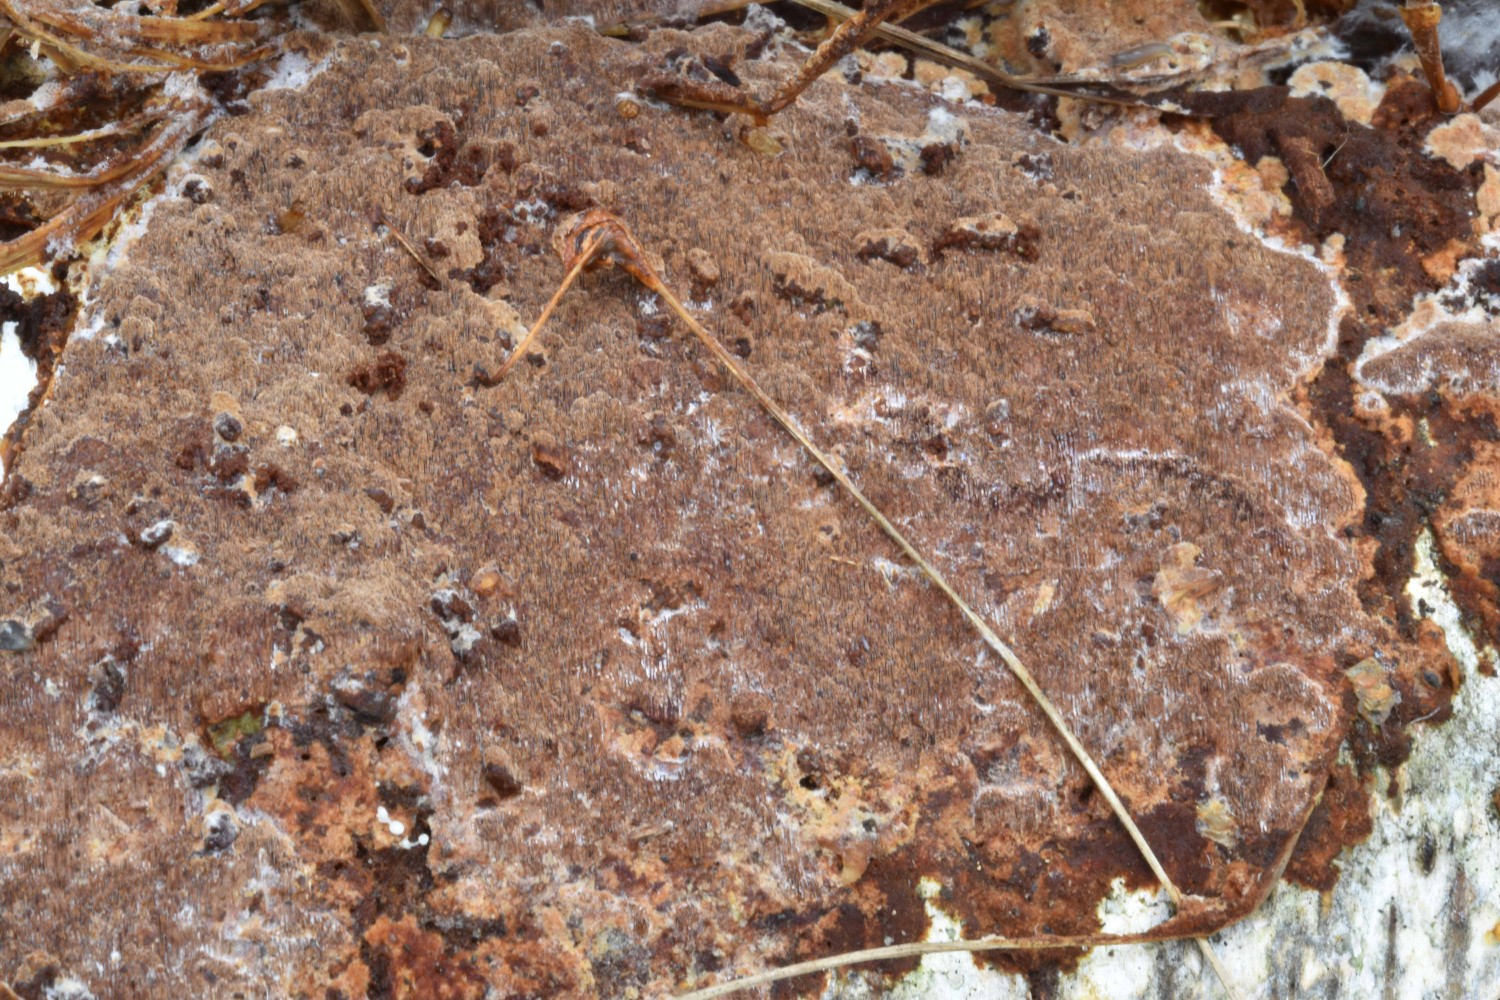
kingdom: Fungi
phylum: Basidiomycota
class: Agaricomycetes
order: Hymenochaetales
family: Hymenochaetaceae
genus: Fuscoporia
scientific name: Fuscoporia ferruginosa
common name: rustbrun ildporesvamp
